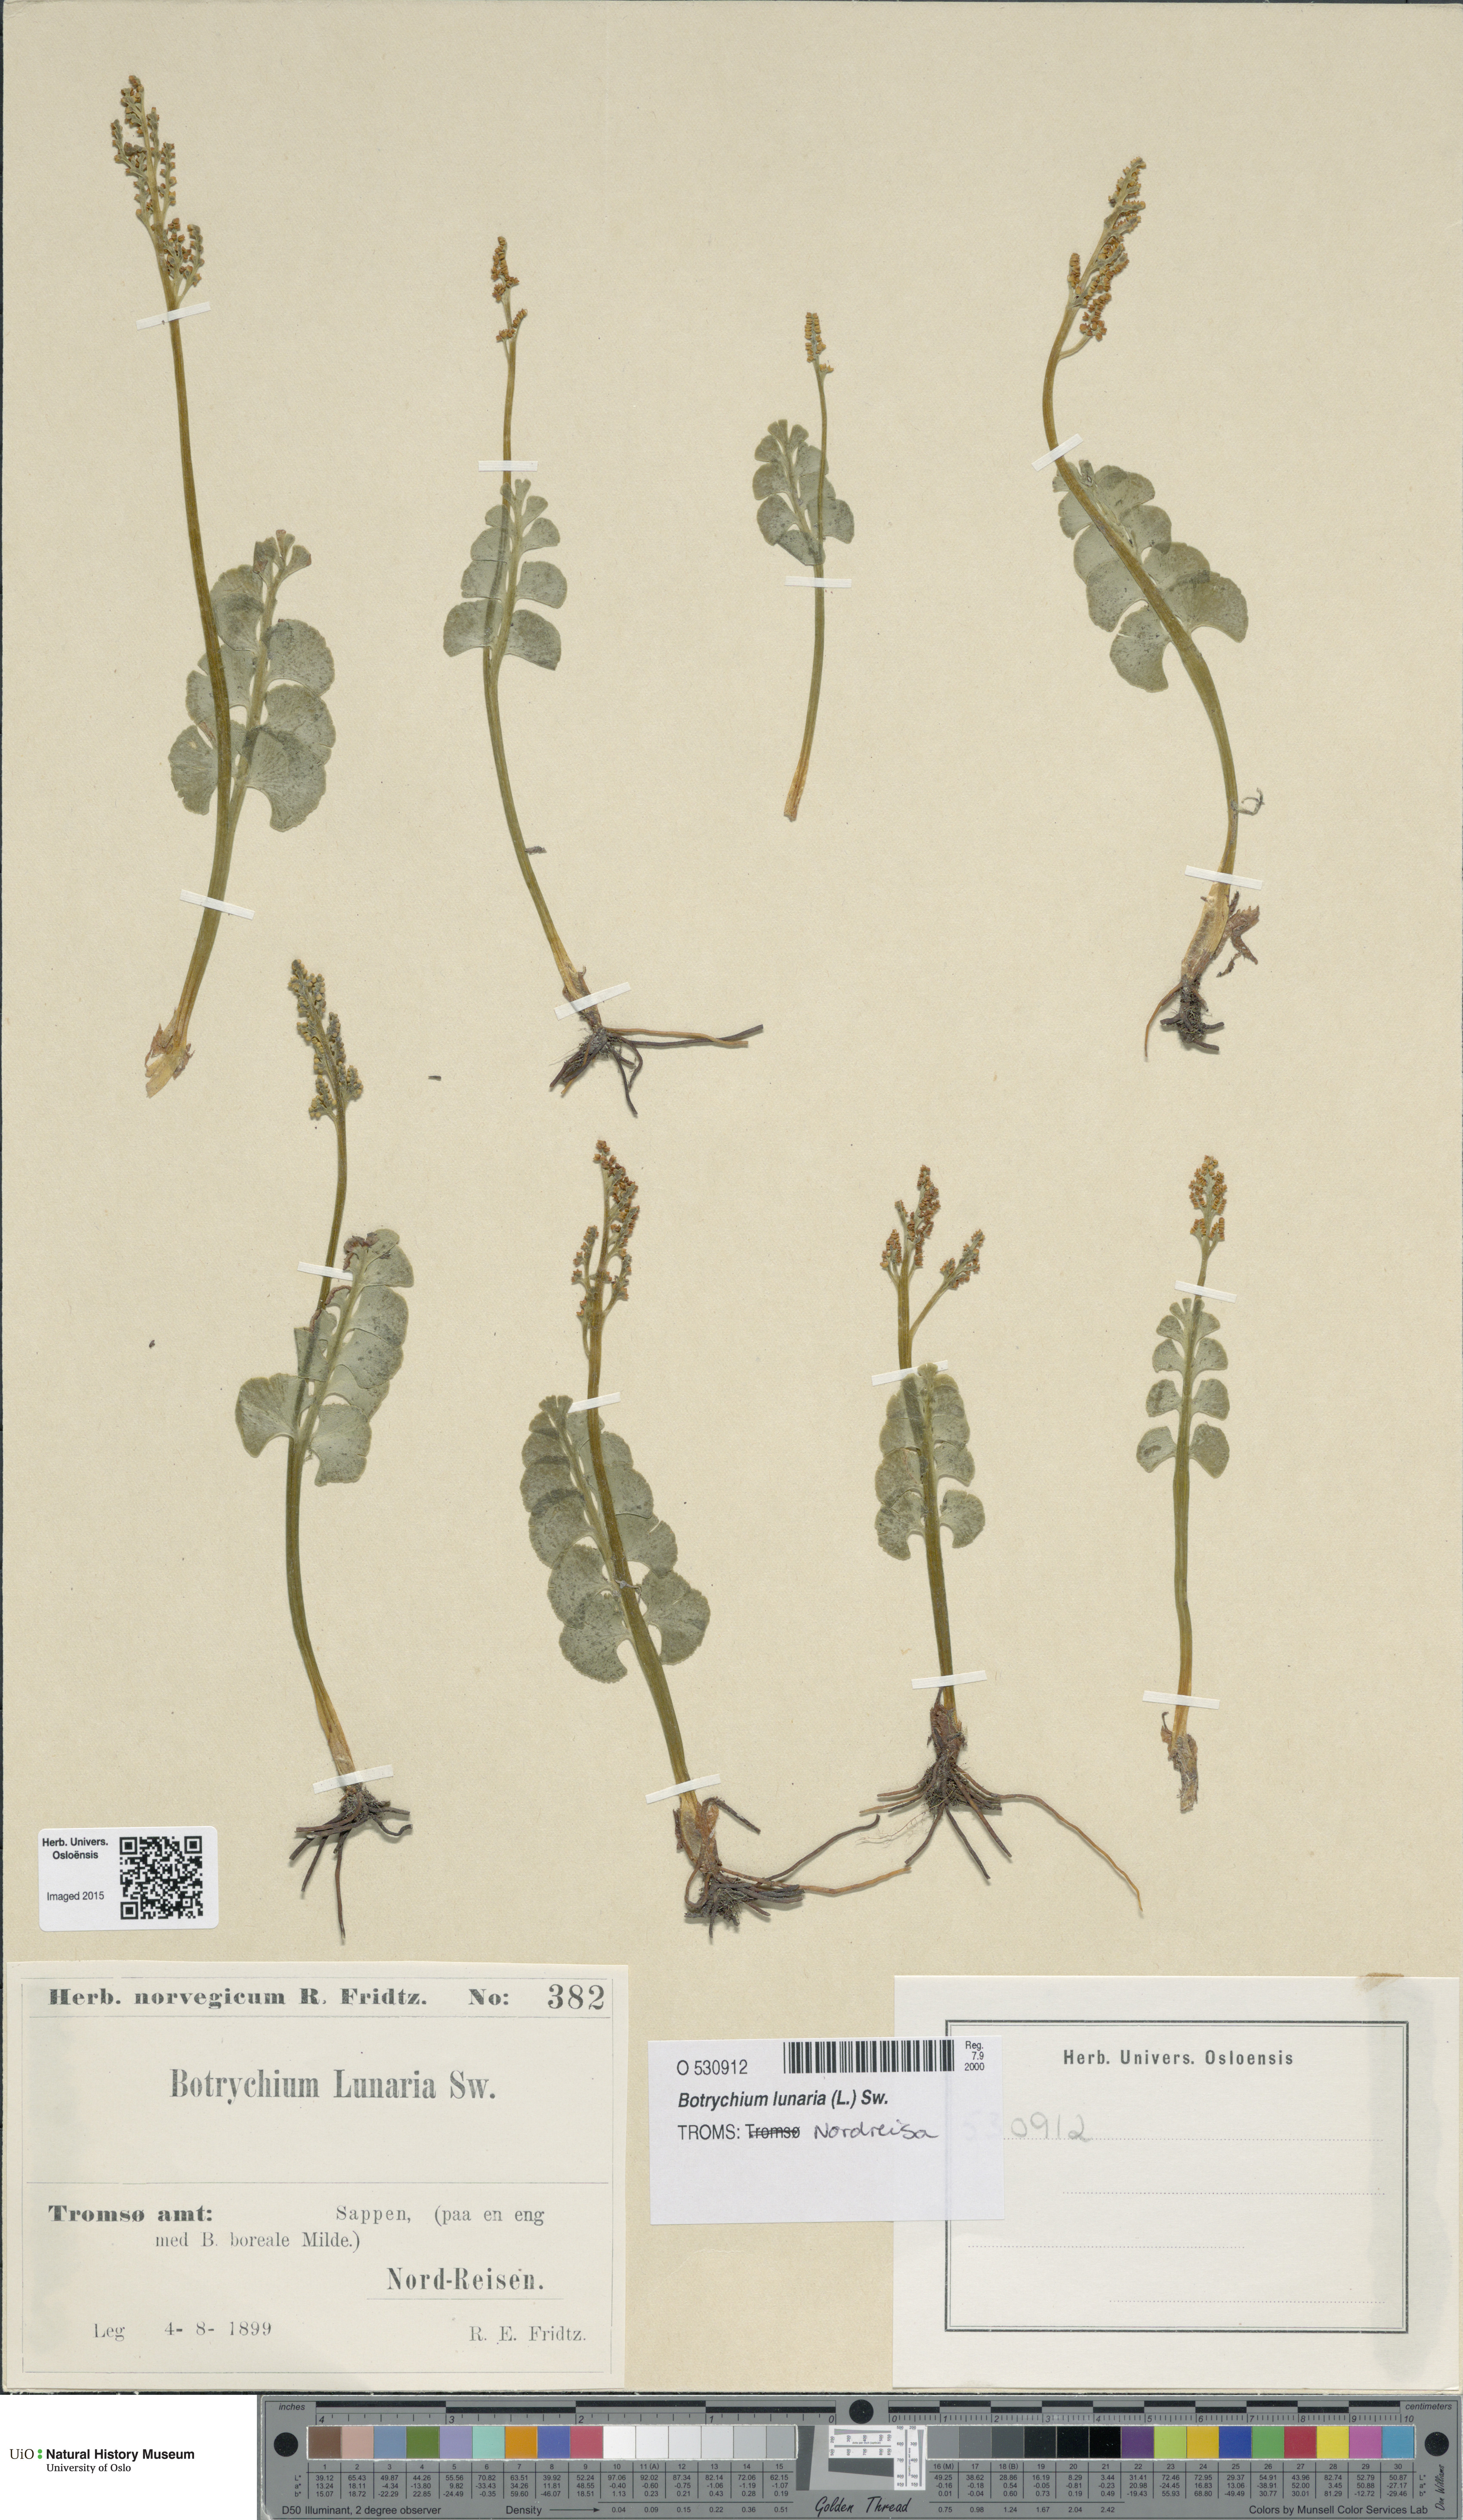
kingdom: Plantae
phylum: Tracheophyta
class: Polypodiopsida
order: Ophioglossales
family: Ophioglossaceae
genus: Botrychium
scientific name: Botrychium lunaria
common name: Moonwort
